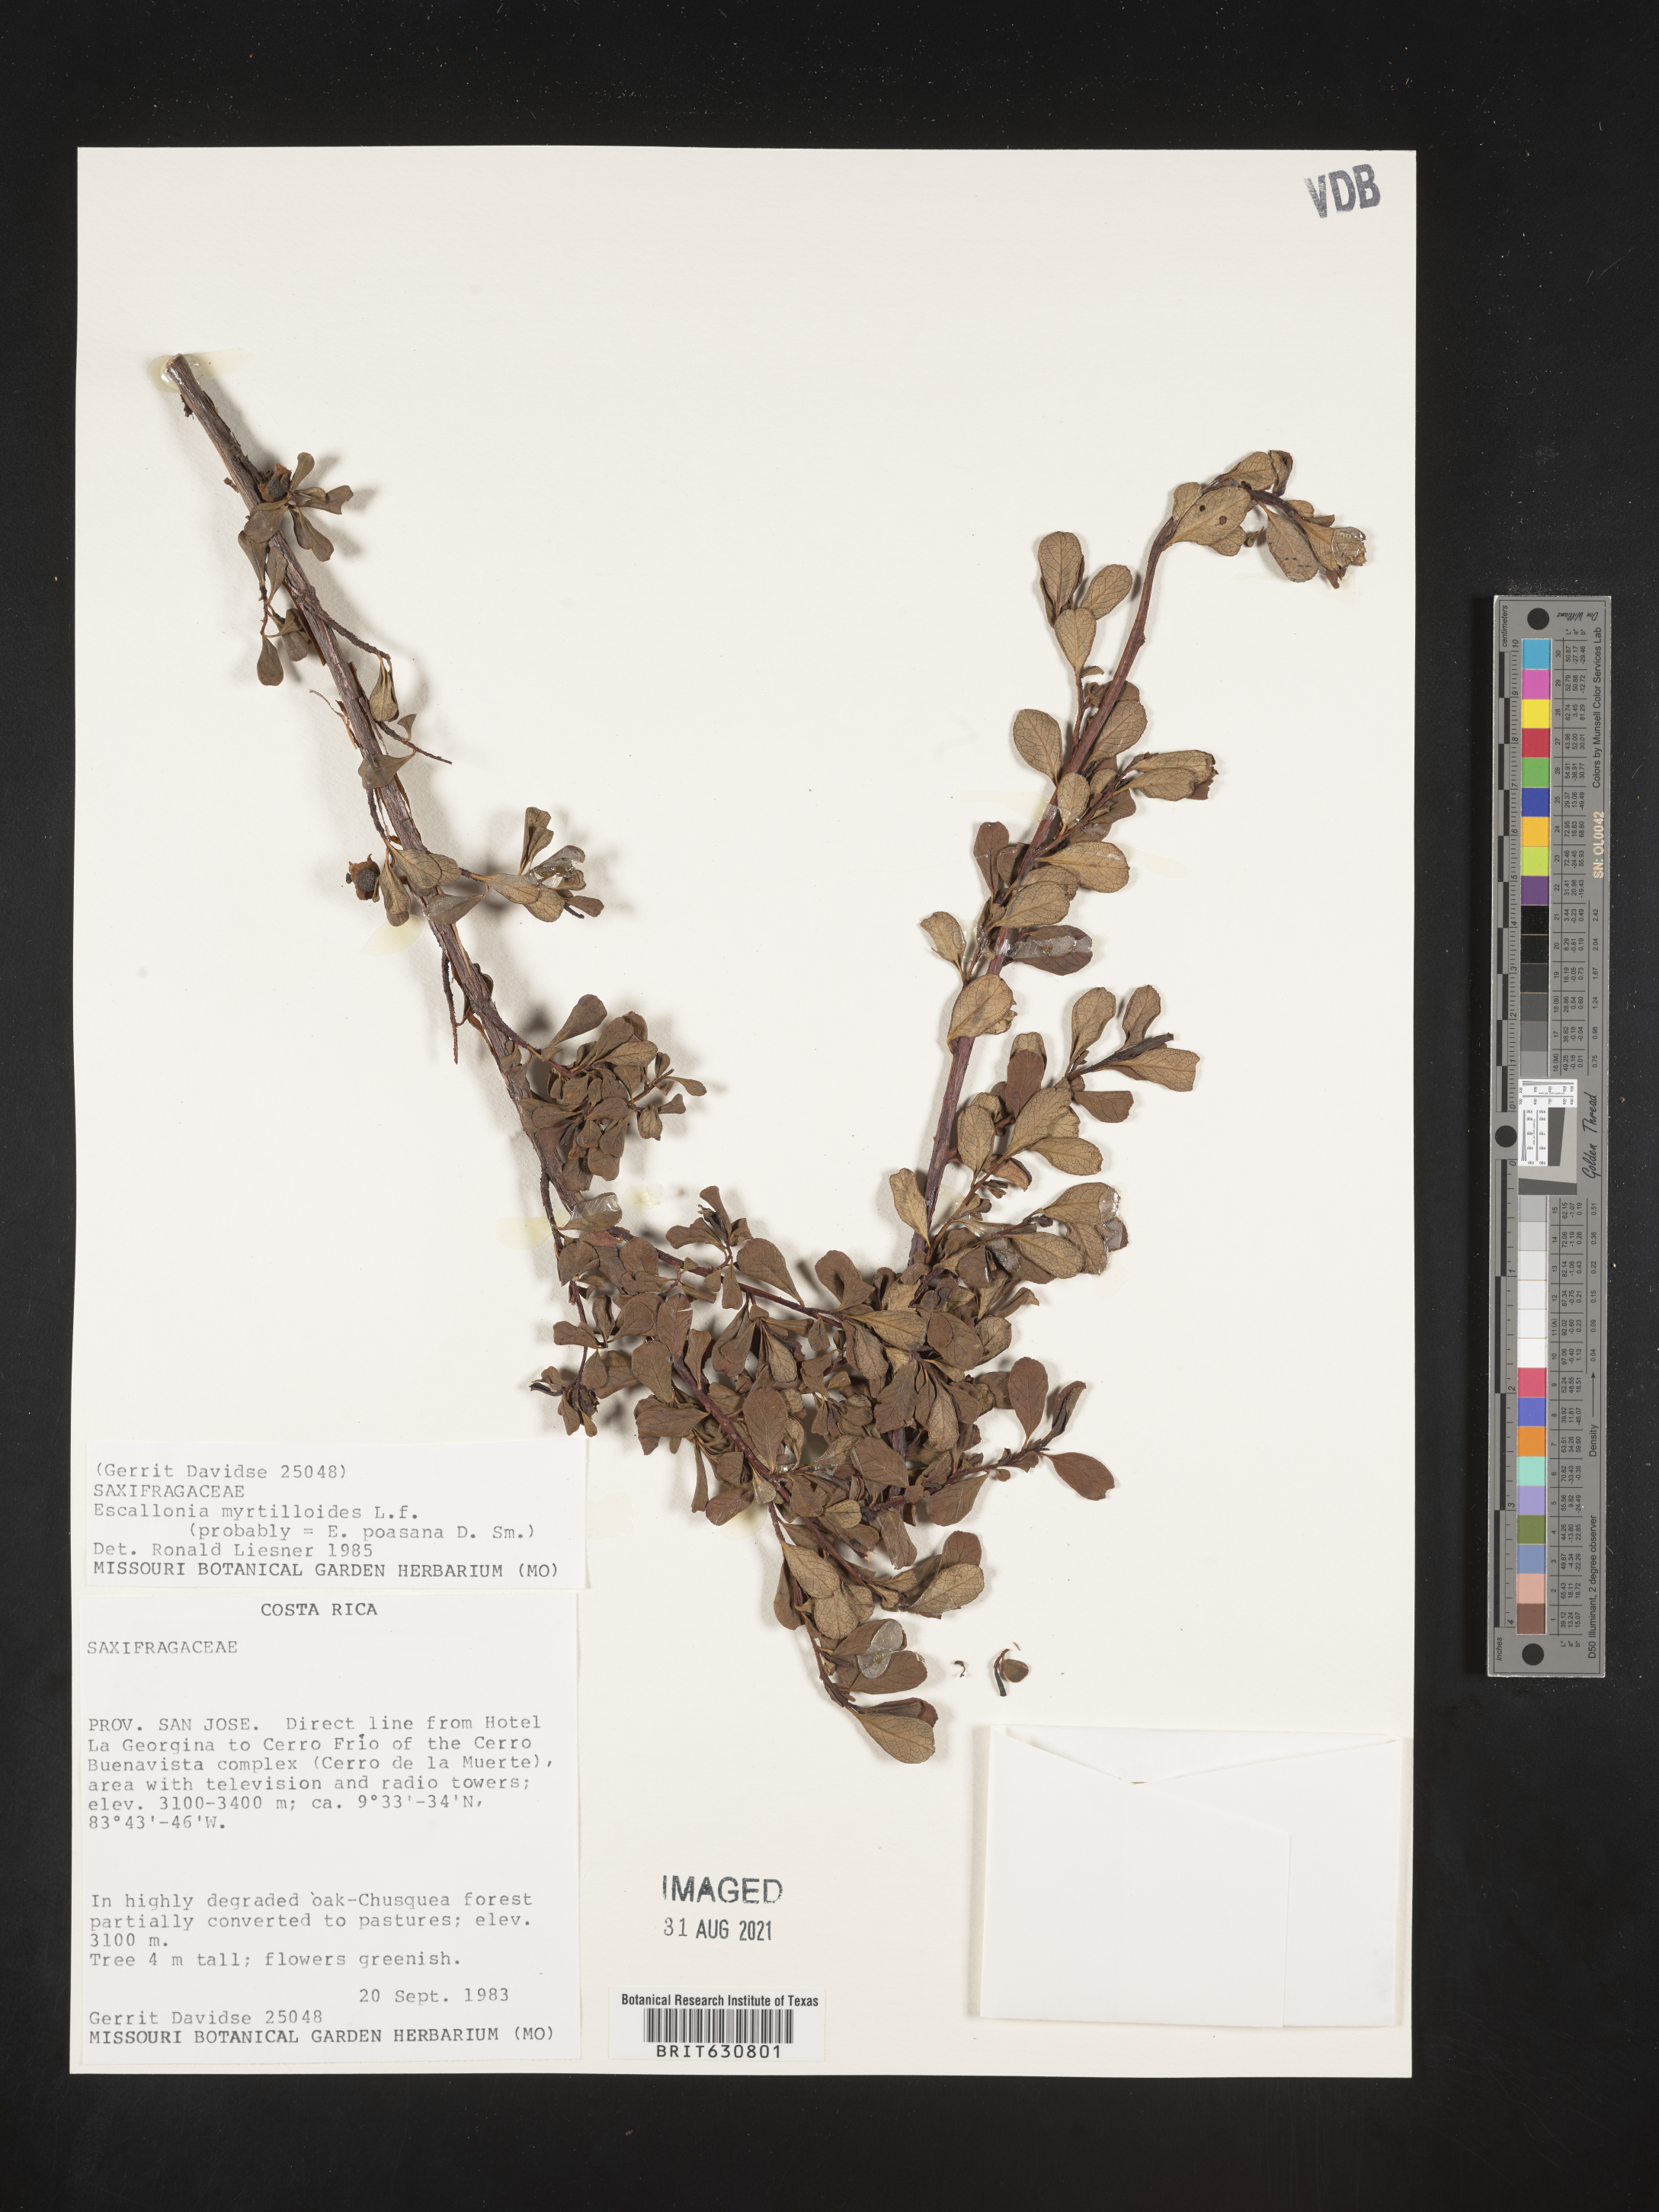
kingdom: Plantae
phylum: Tracheophyta
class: Magnoliopsida
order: Escalloniales
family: Escalloniaceae
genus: Escallonia
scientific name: Escallonia
